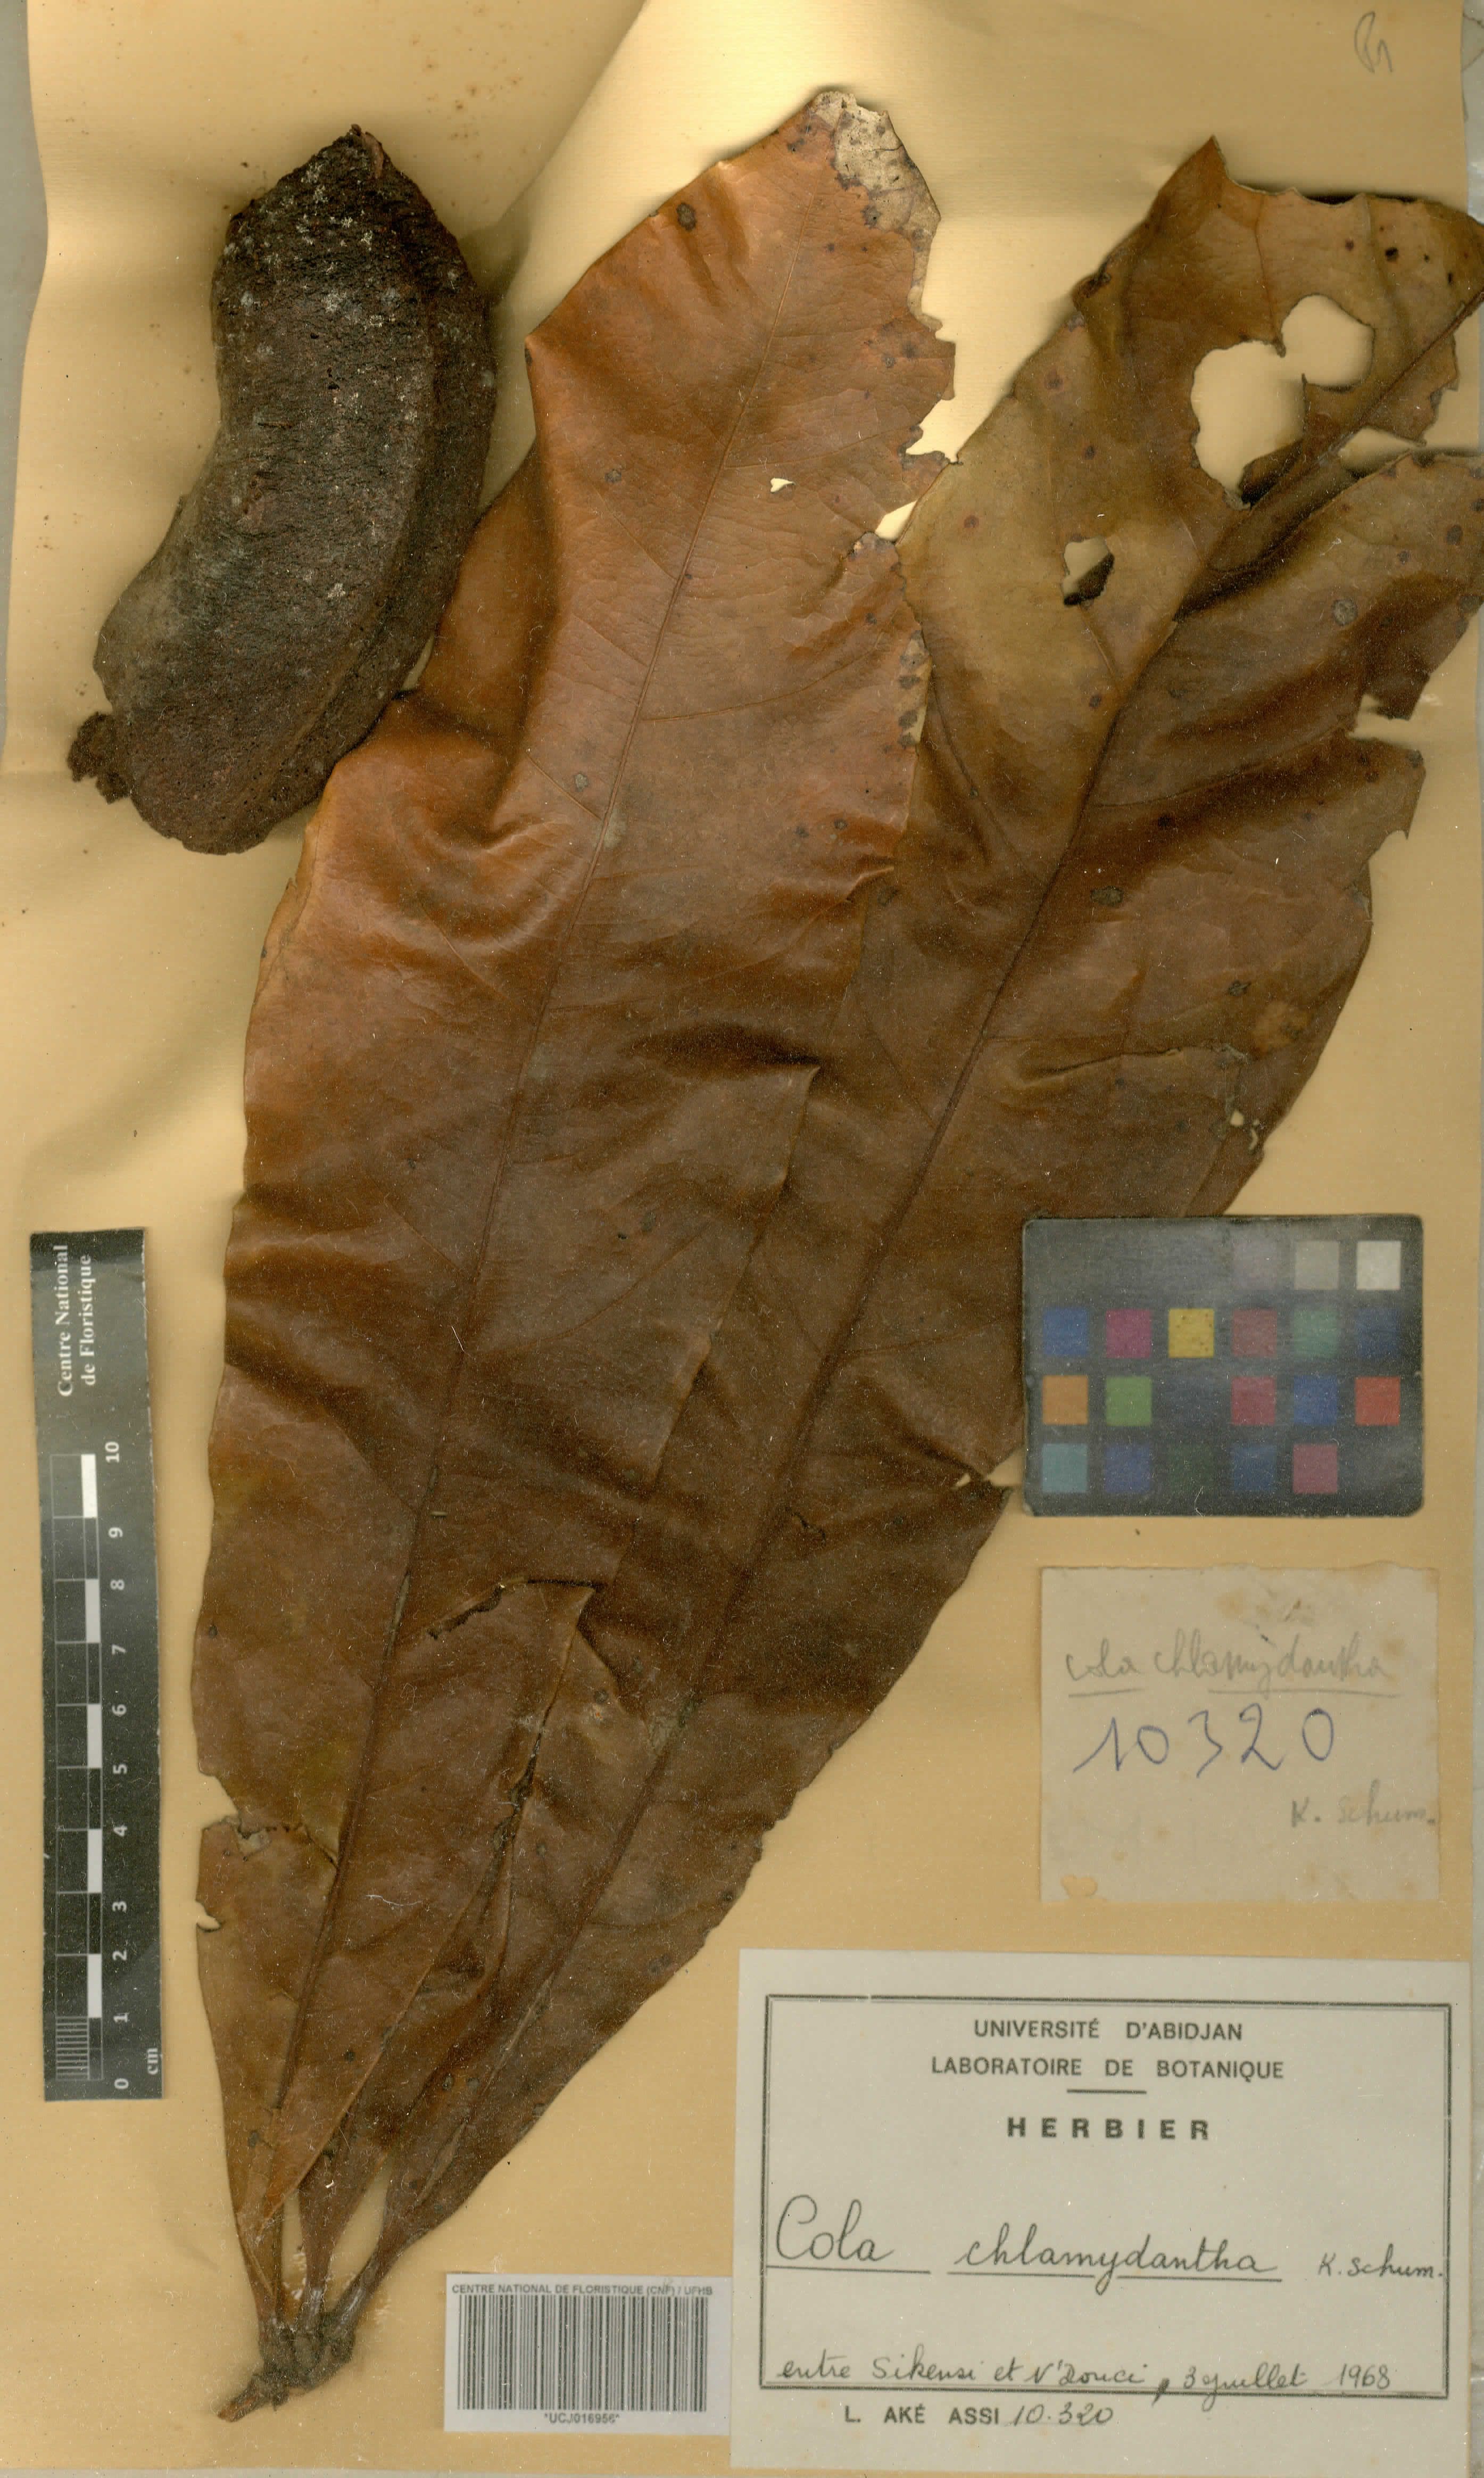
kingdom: Plantae
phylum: Tracheophyta
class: Magnoliopsida
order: Malvales
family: Malvaceae
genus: Cola
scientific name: Cola chlamydantha
